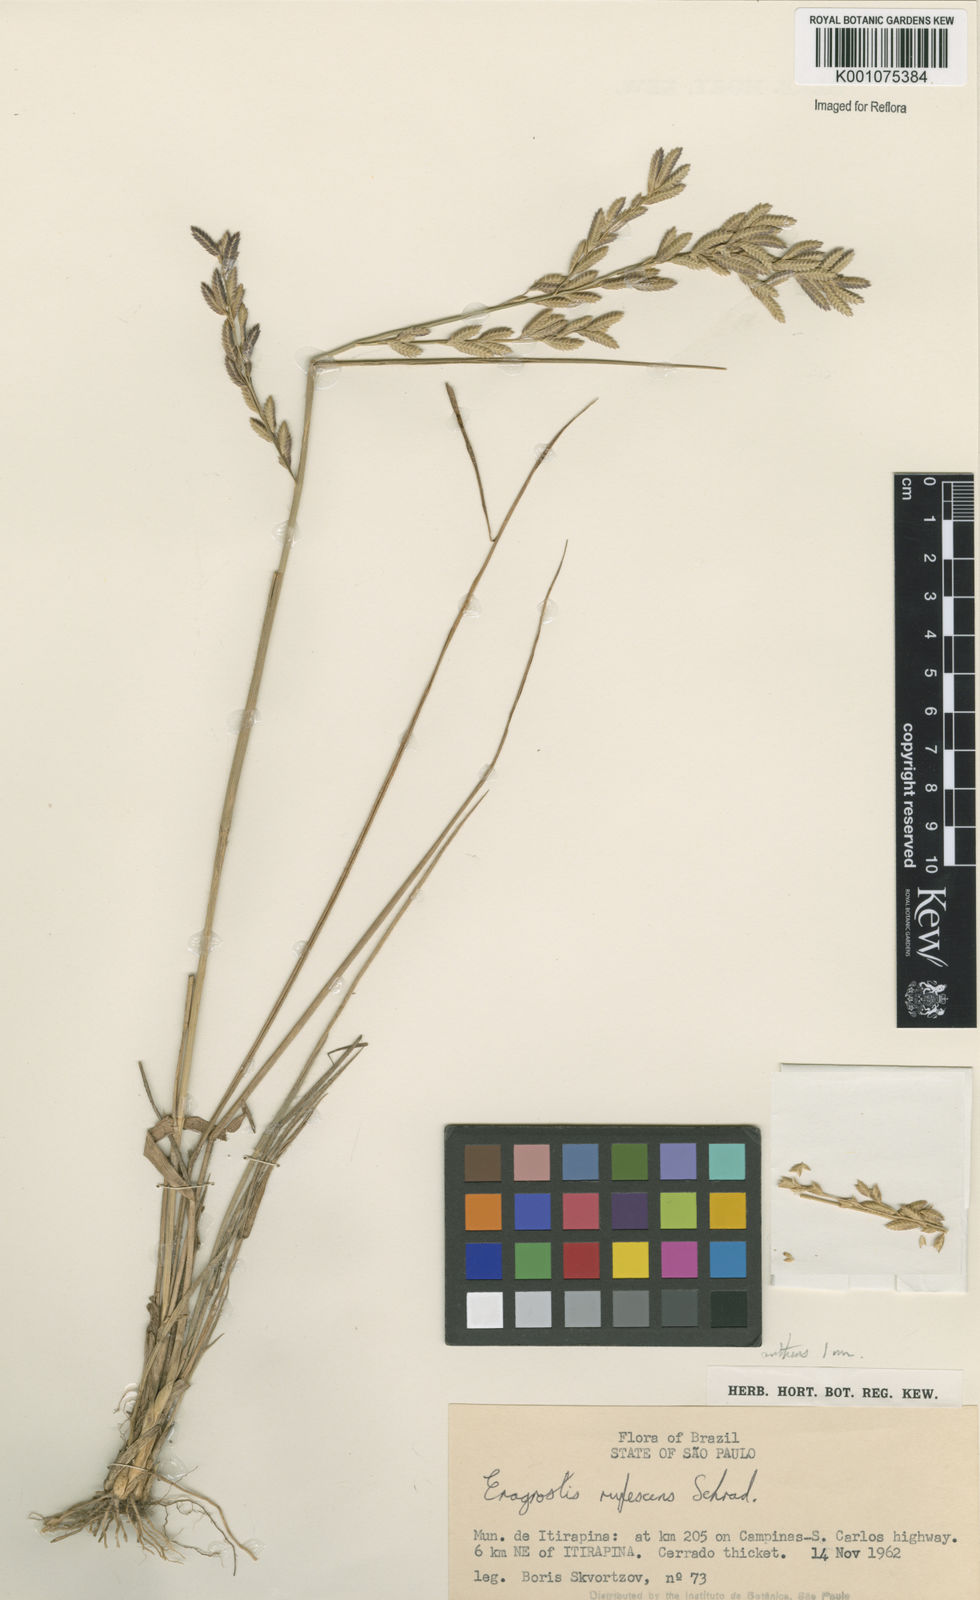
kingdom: Plantae
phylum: Tracheophyta
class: Liliopsida
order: Poales
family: Poaceae
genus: Eragrostis
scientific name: Eragrostis solida
